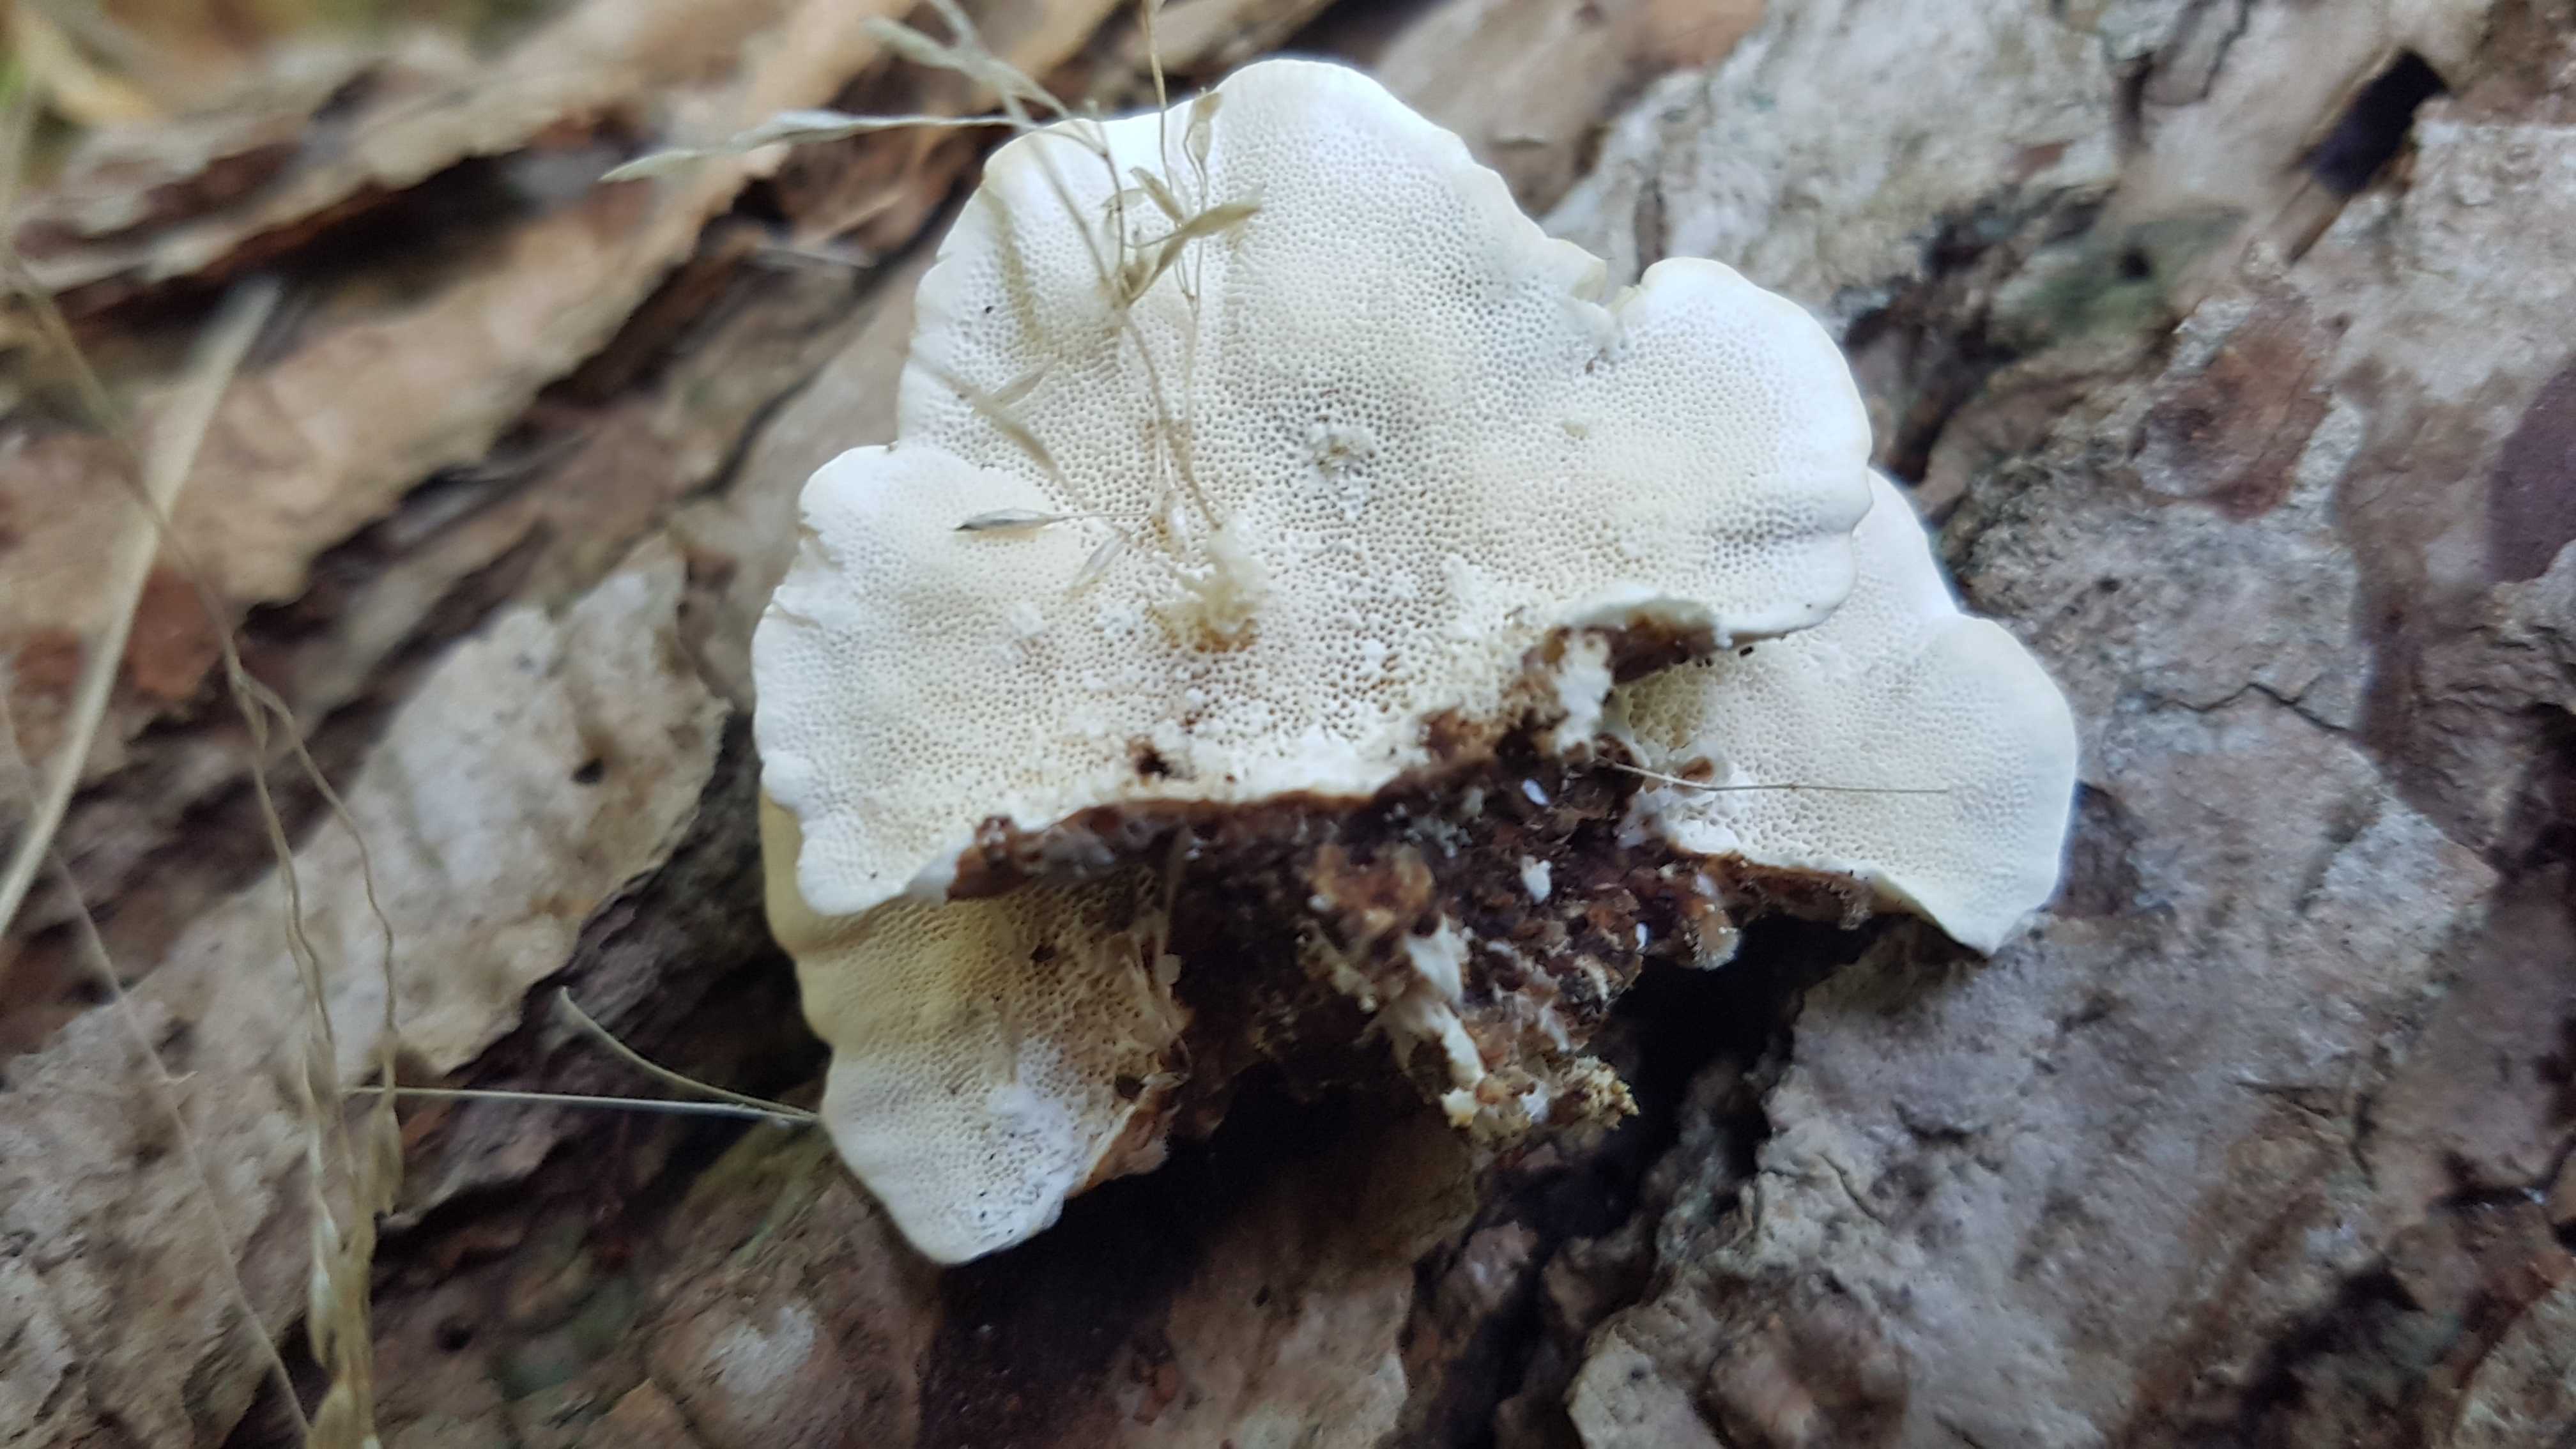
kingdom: Fungi
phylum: Basidiomycota
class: Agaricomycetes
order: Polyporales
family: Polyporaceae
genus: Trametes
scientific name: Trametes versicolor
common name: broget læderporesvamp
